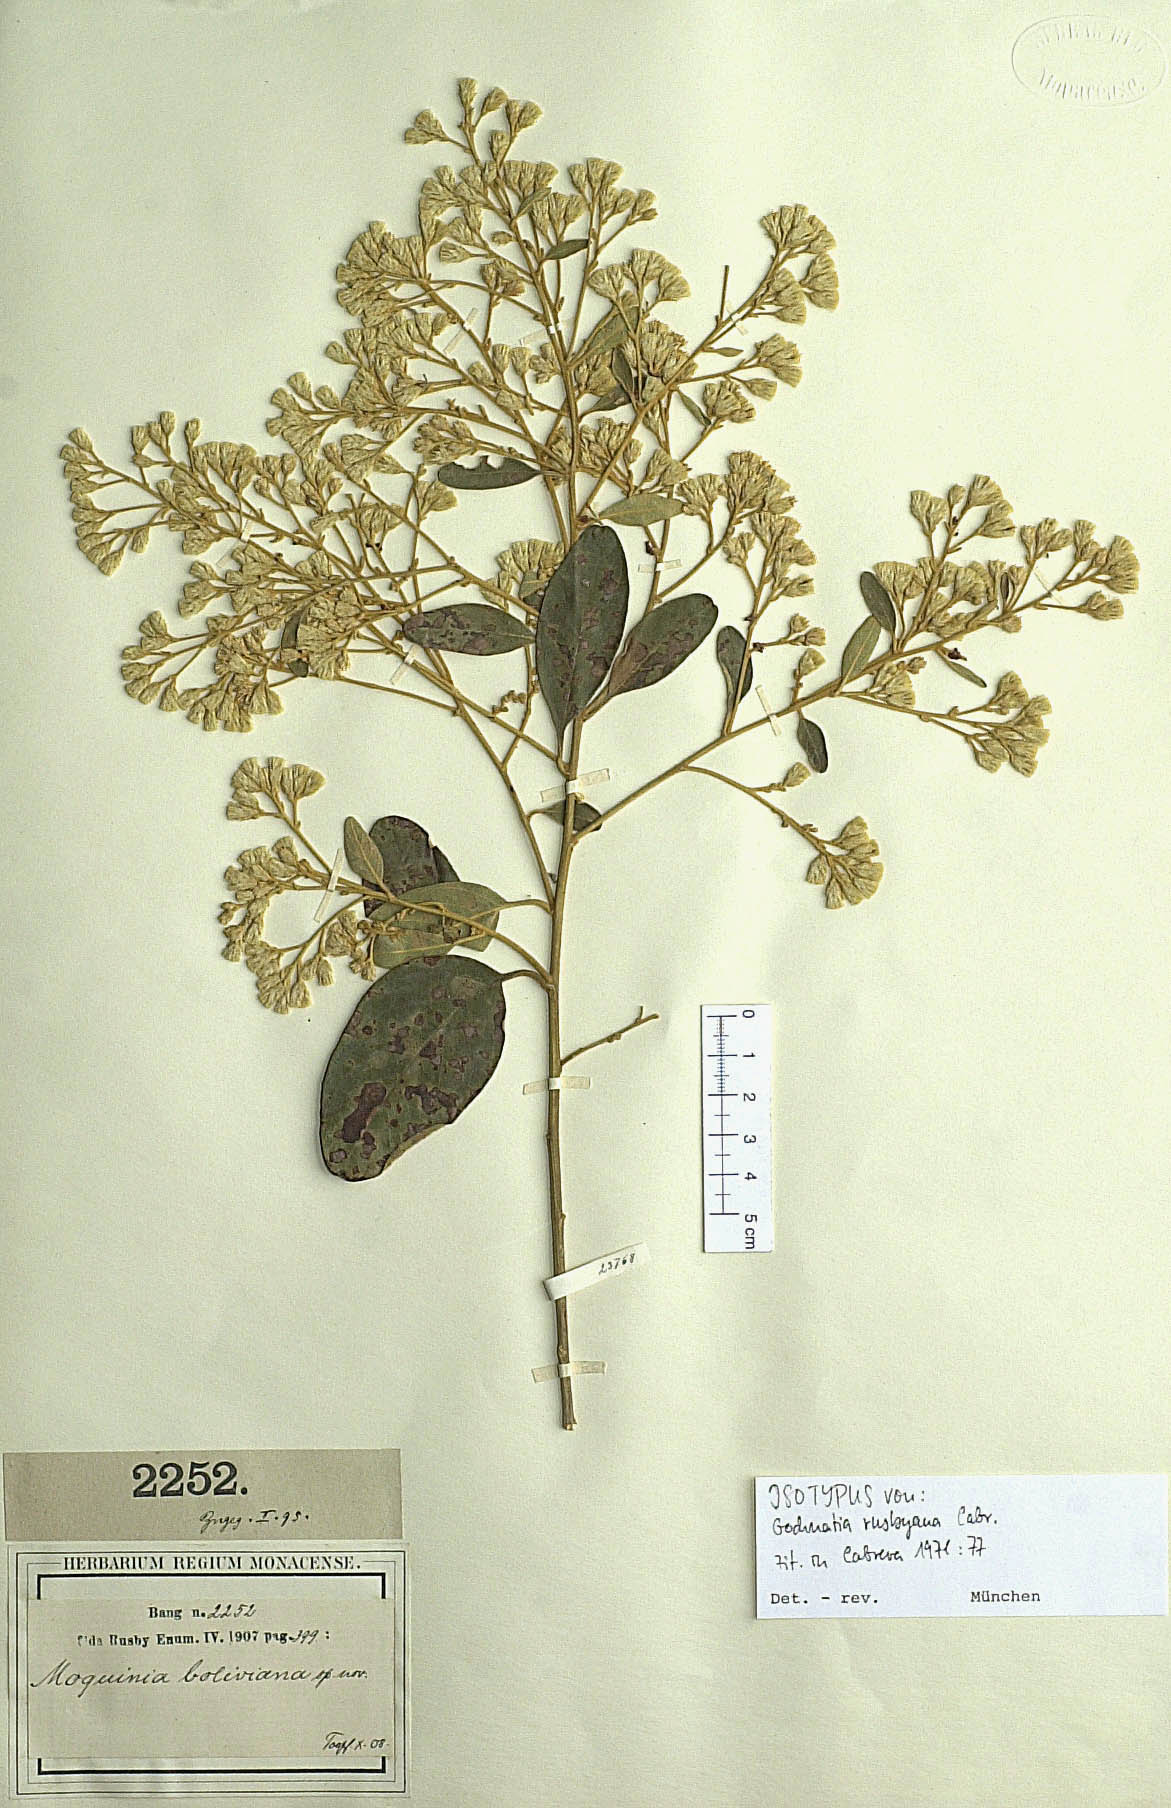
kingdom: Plantae
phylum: Tracheophyta
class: Magnoliopsida
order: Asterales
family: Asteraceae
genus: Moquiniastrum
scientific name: Moquiniastrum bolivianum
